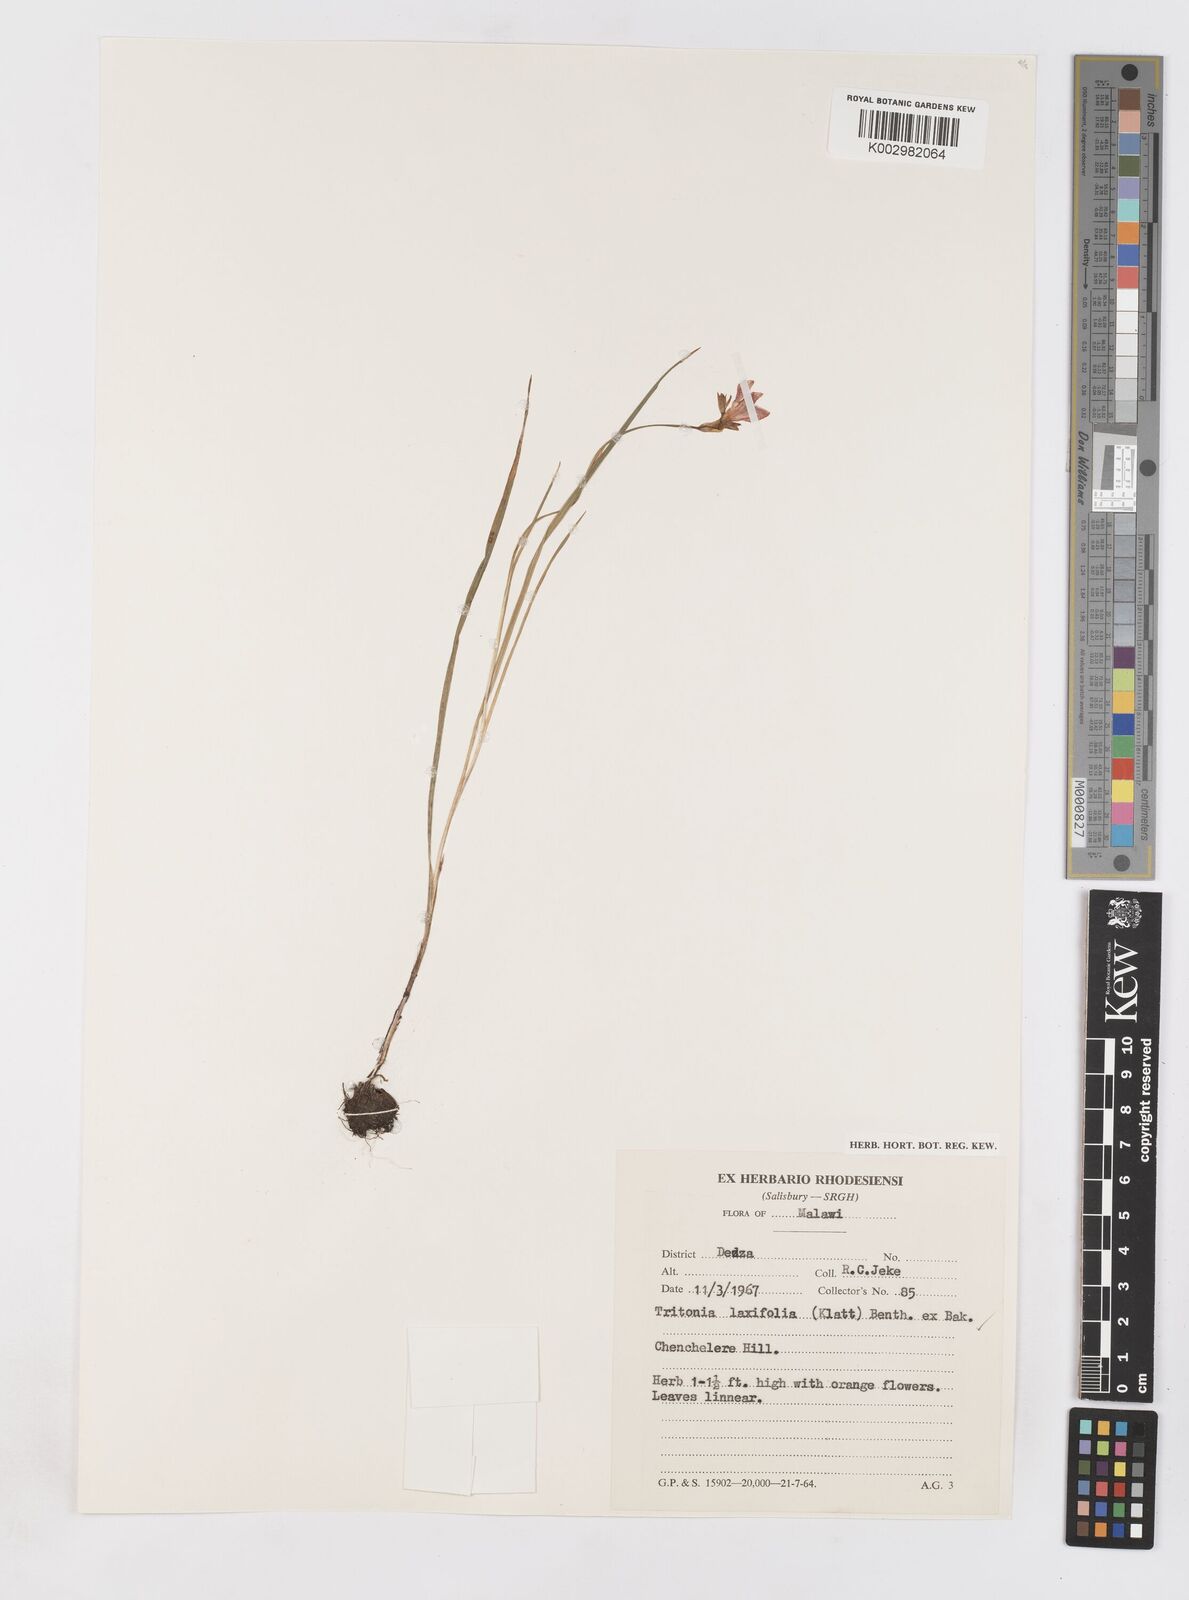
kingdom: Plantae
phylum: Tracheophyta
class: Liliopsida
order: Asparagales
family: Iridaceae
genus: Tritonia
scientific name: Tritonia laxifolia
